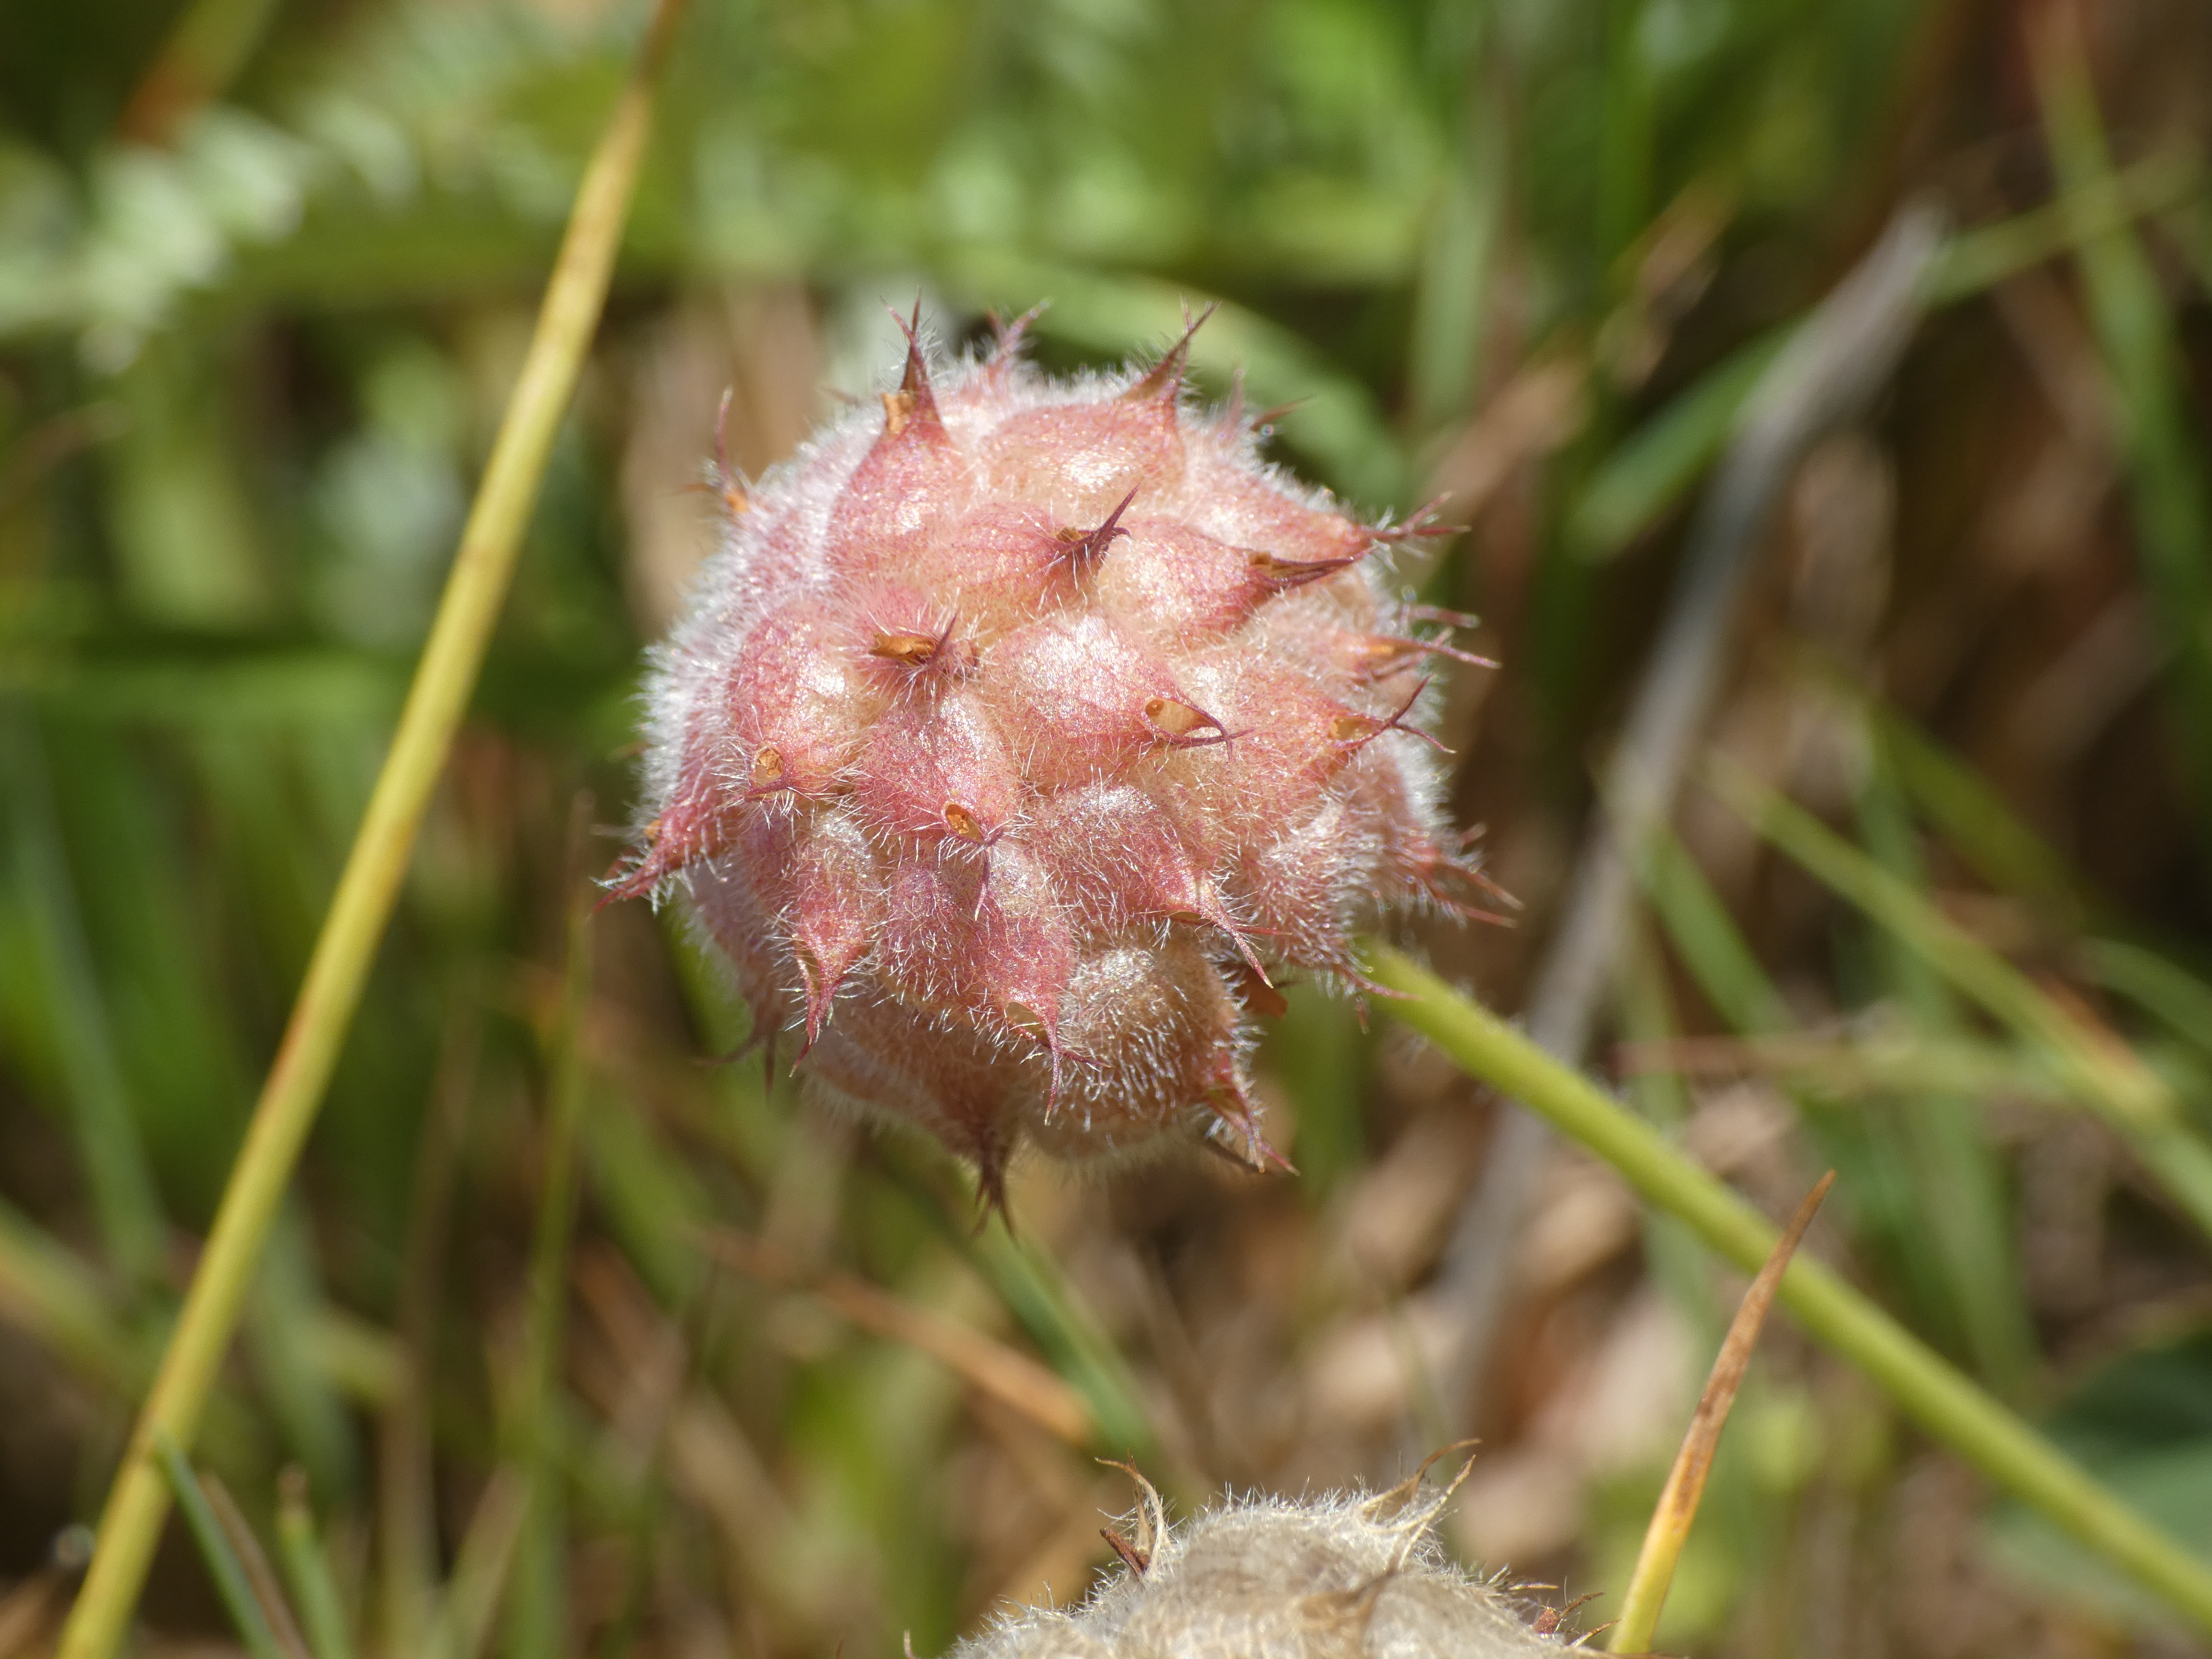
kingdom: Plantae
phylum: Tracheophyta
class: Magnoliopsida
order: Fabales
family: Fabaceae
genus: Trifolium
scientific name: Trifolium fragiferum
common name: Jordbær-kløver
